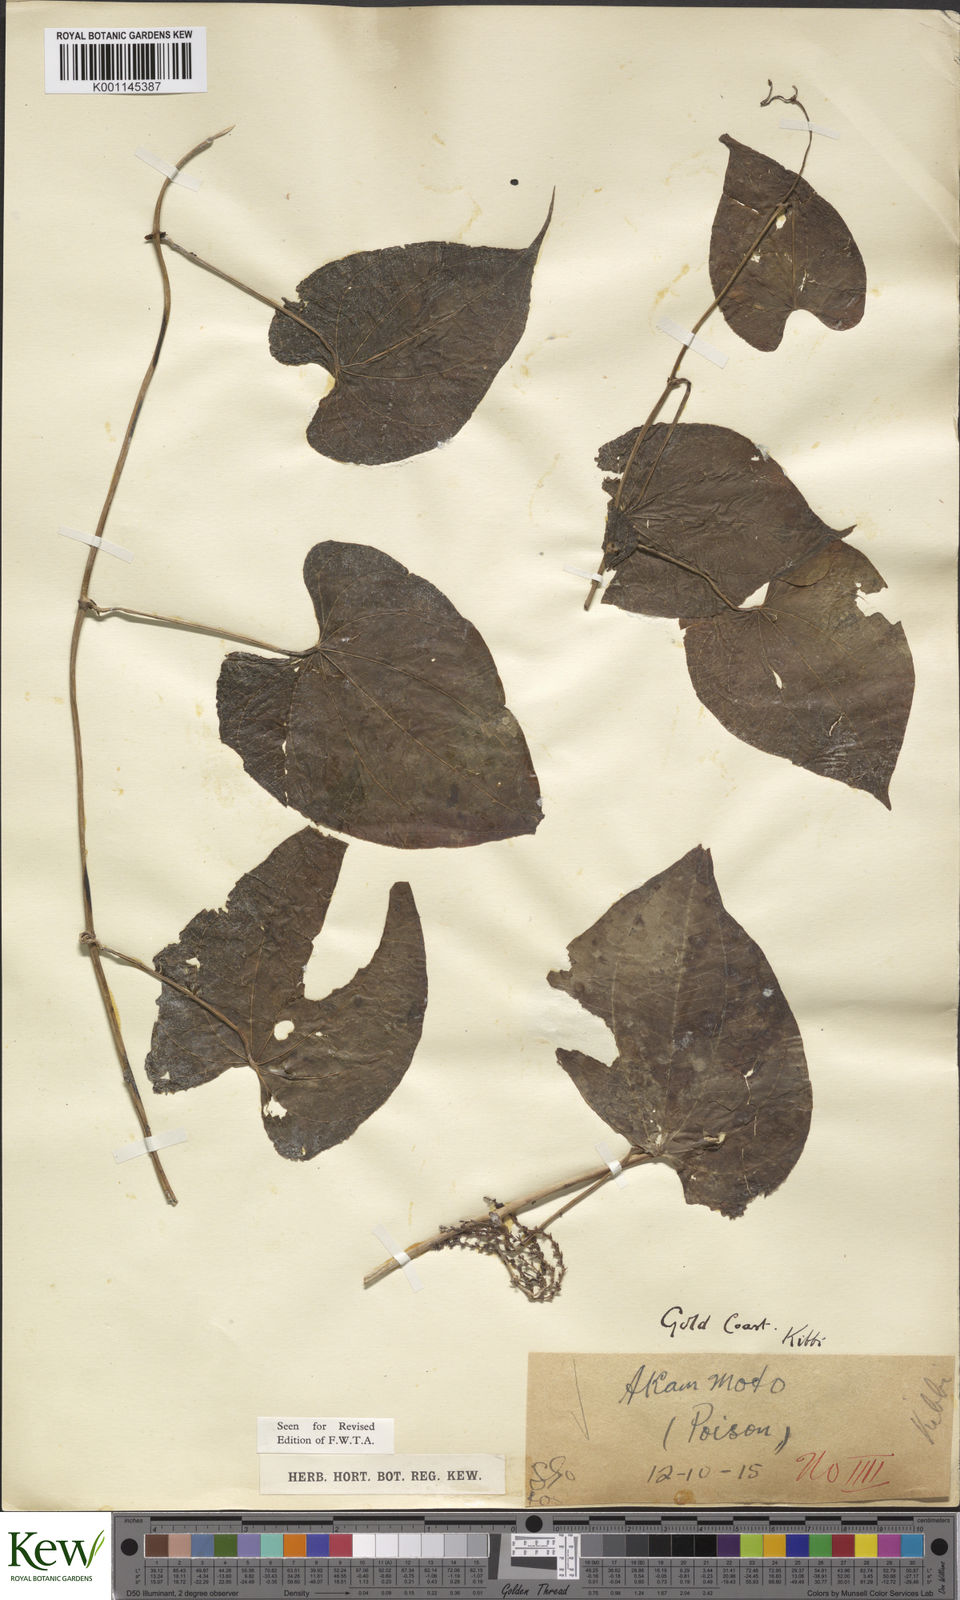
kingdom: Plantae
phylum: Tracheophyta
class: Liliopsida
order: Dioscoreales
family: Dioscoreaceae
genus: Dioscorea
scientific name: Dioscorea bulbifera
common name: Air yam
